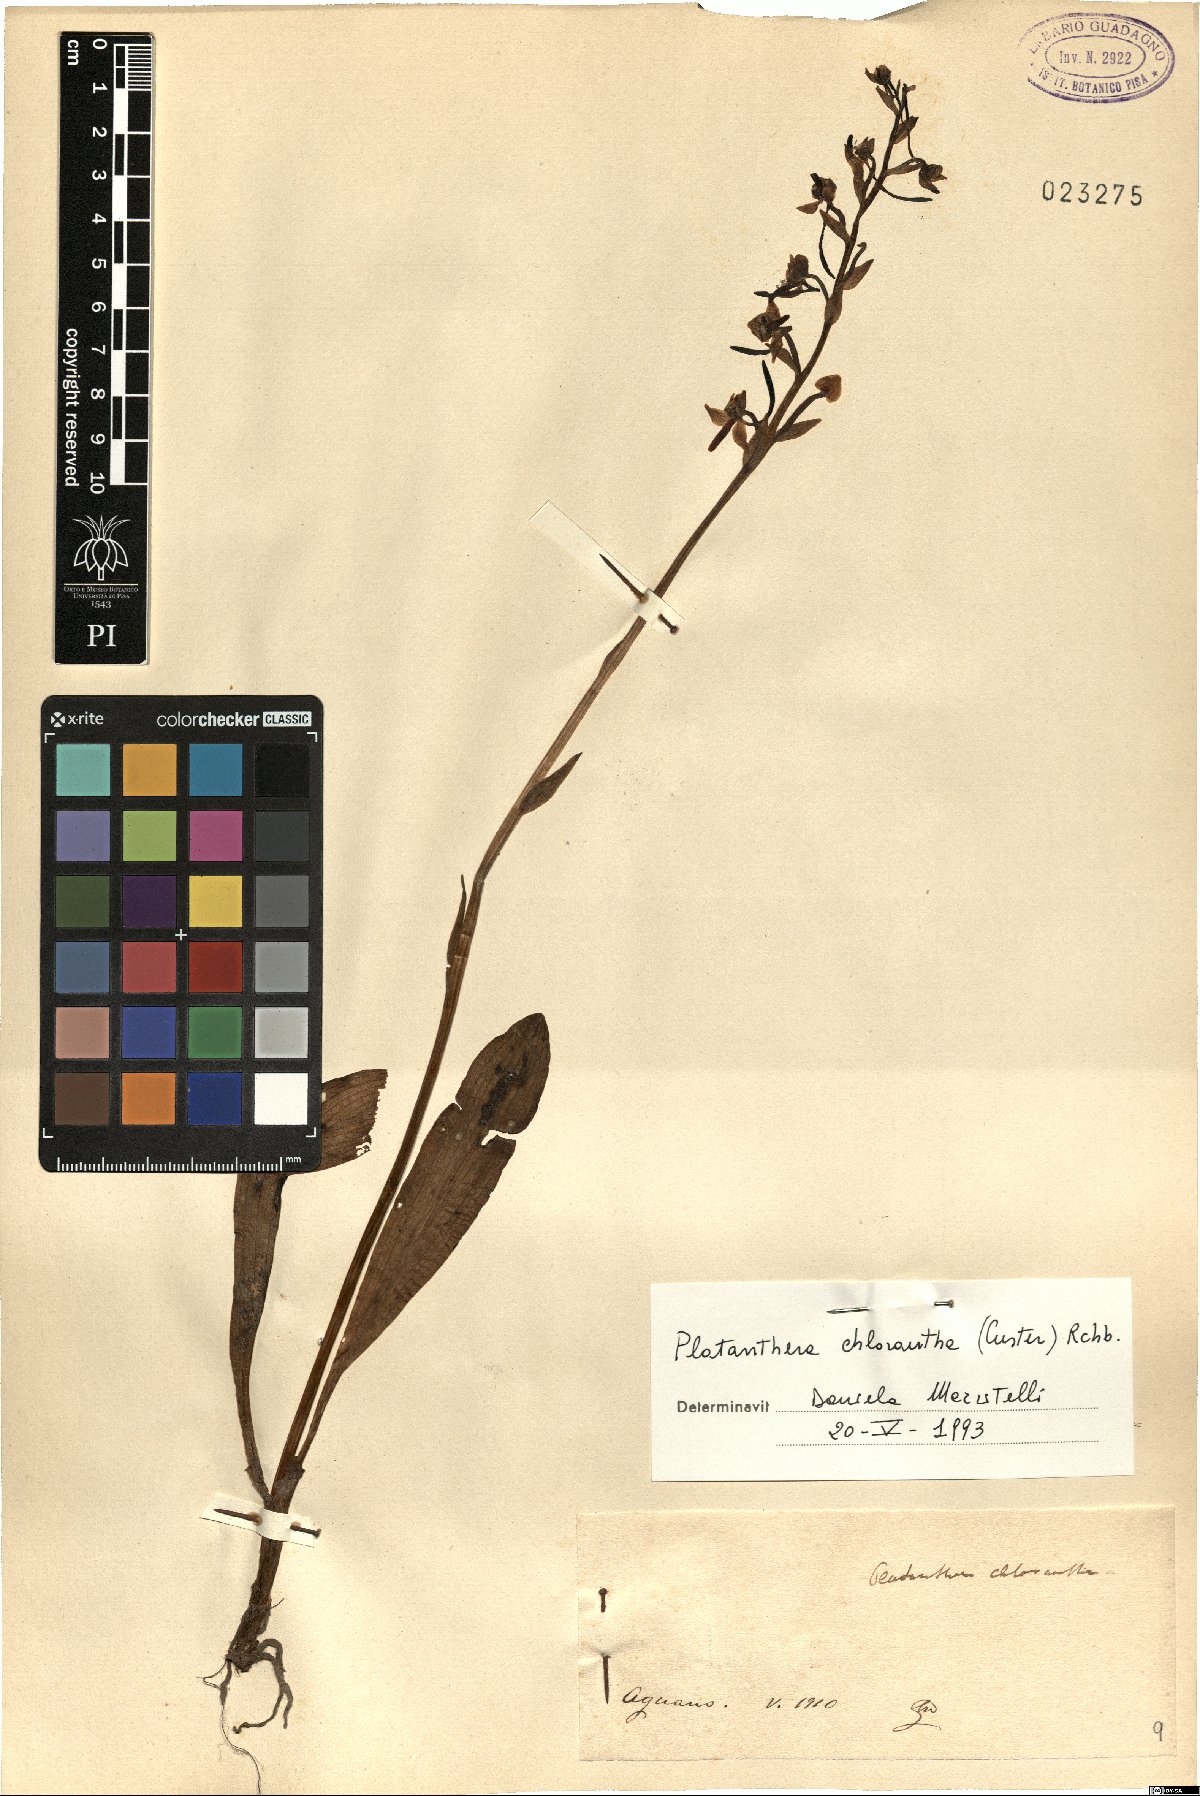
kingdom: Plantae
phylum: Tracheophyta
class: Liliopsida
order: Asparagales
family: Orchidaceae
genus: Platanthera
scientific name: Platanthera chlorantha
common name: Greater butterfly-orchid
